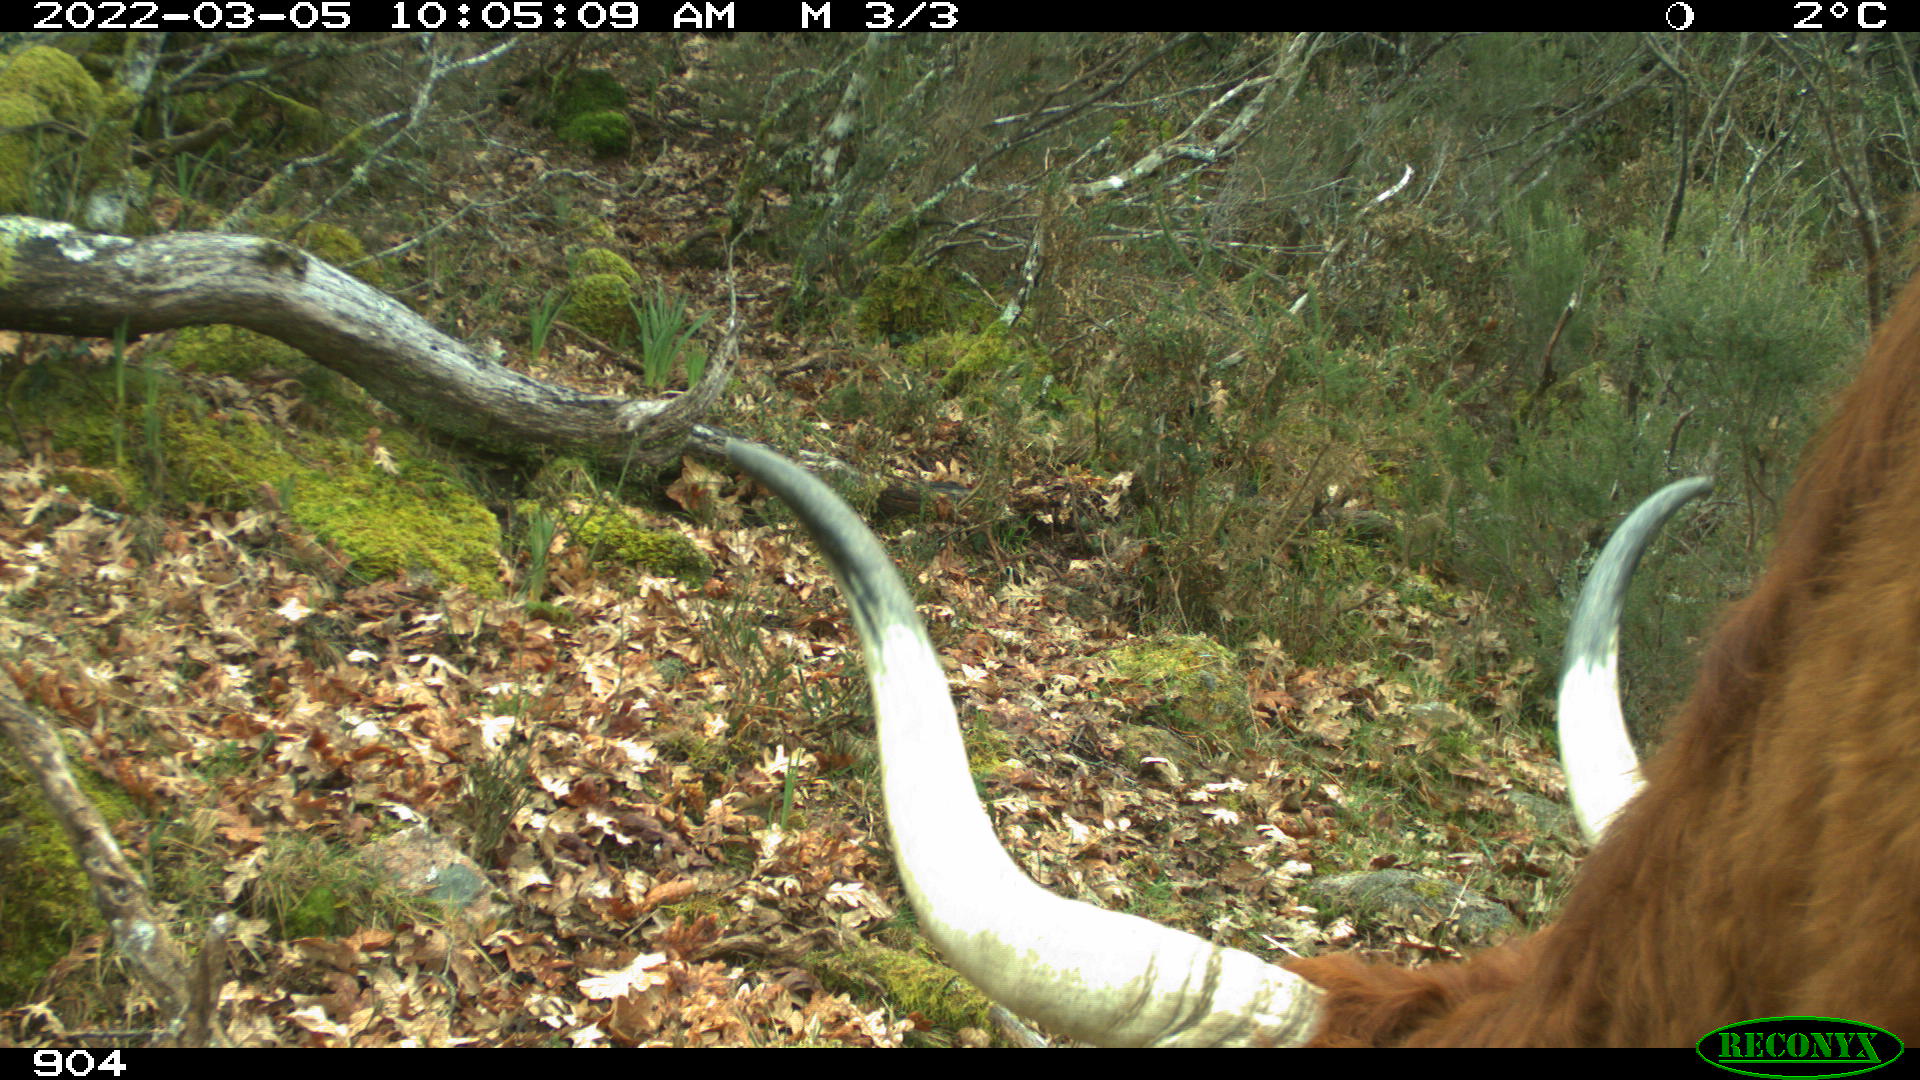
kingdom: Animalia
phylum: Chordata
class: Mammalia
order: Artiodactyla
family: Bovidae
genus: Bos
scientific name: Bos taurus
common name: Domesticated cattle
